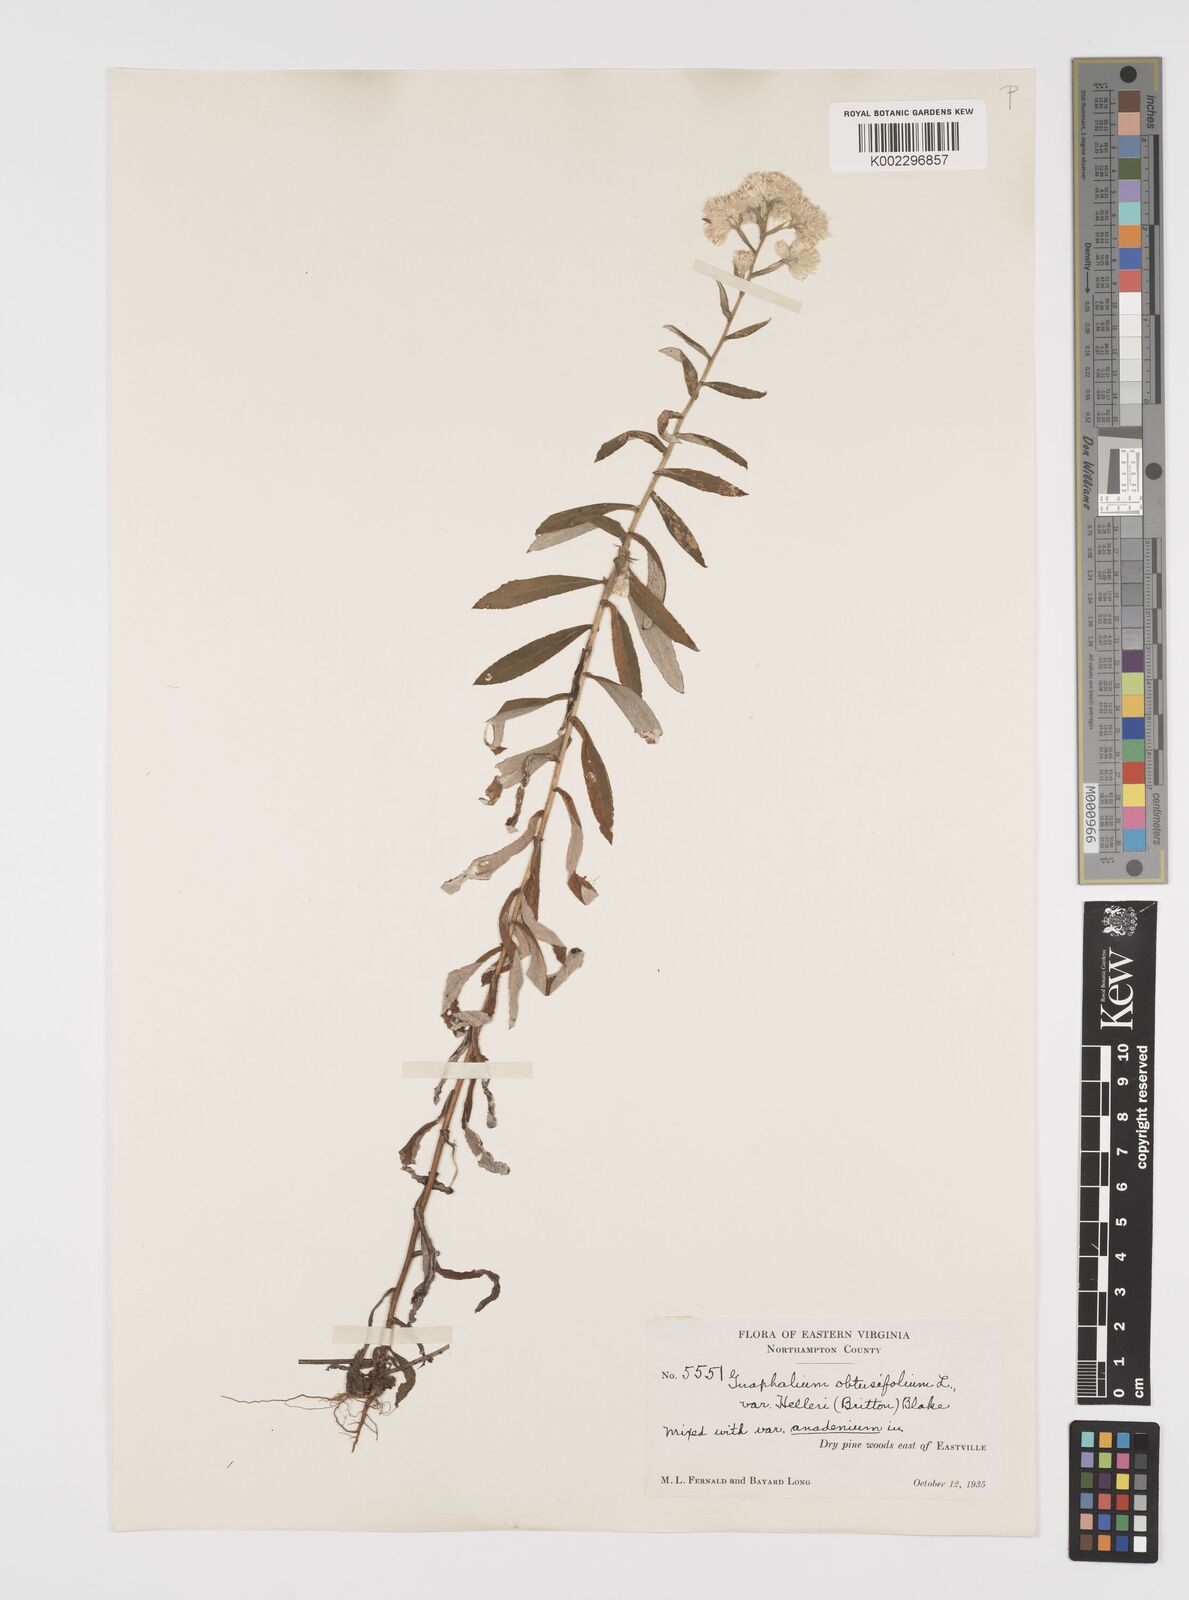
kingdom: Plantae
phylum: Tracheophyta
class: Magnoliopsida
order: Asterales
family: Asteraceae
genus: Pseudognaphalium
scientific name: Pseudognaphalium helleri
